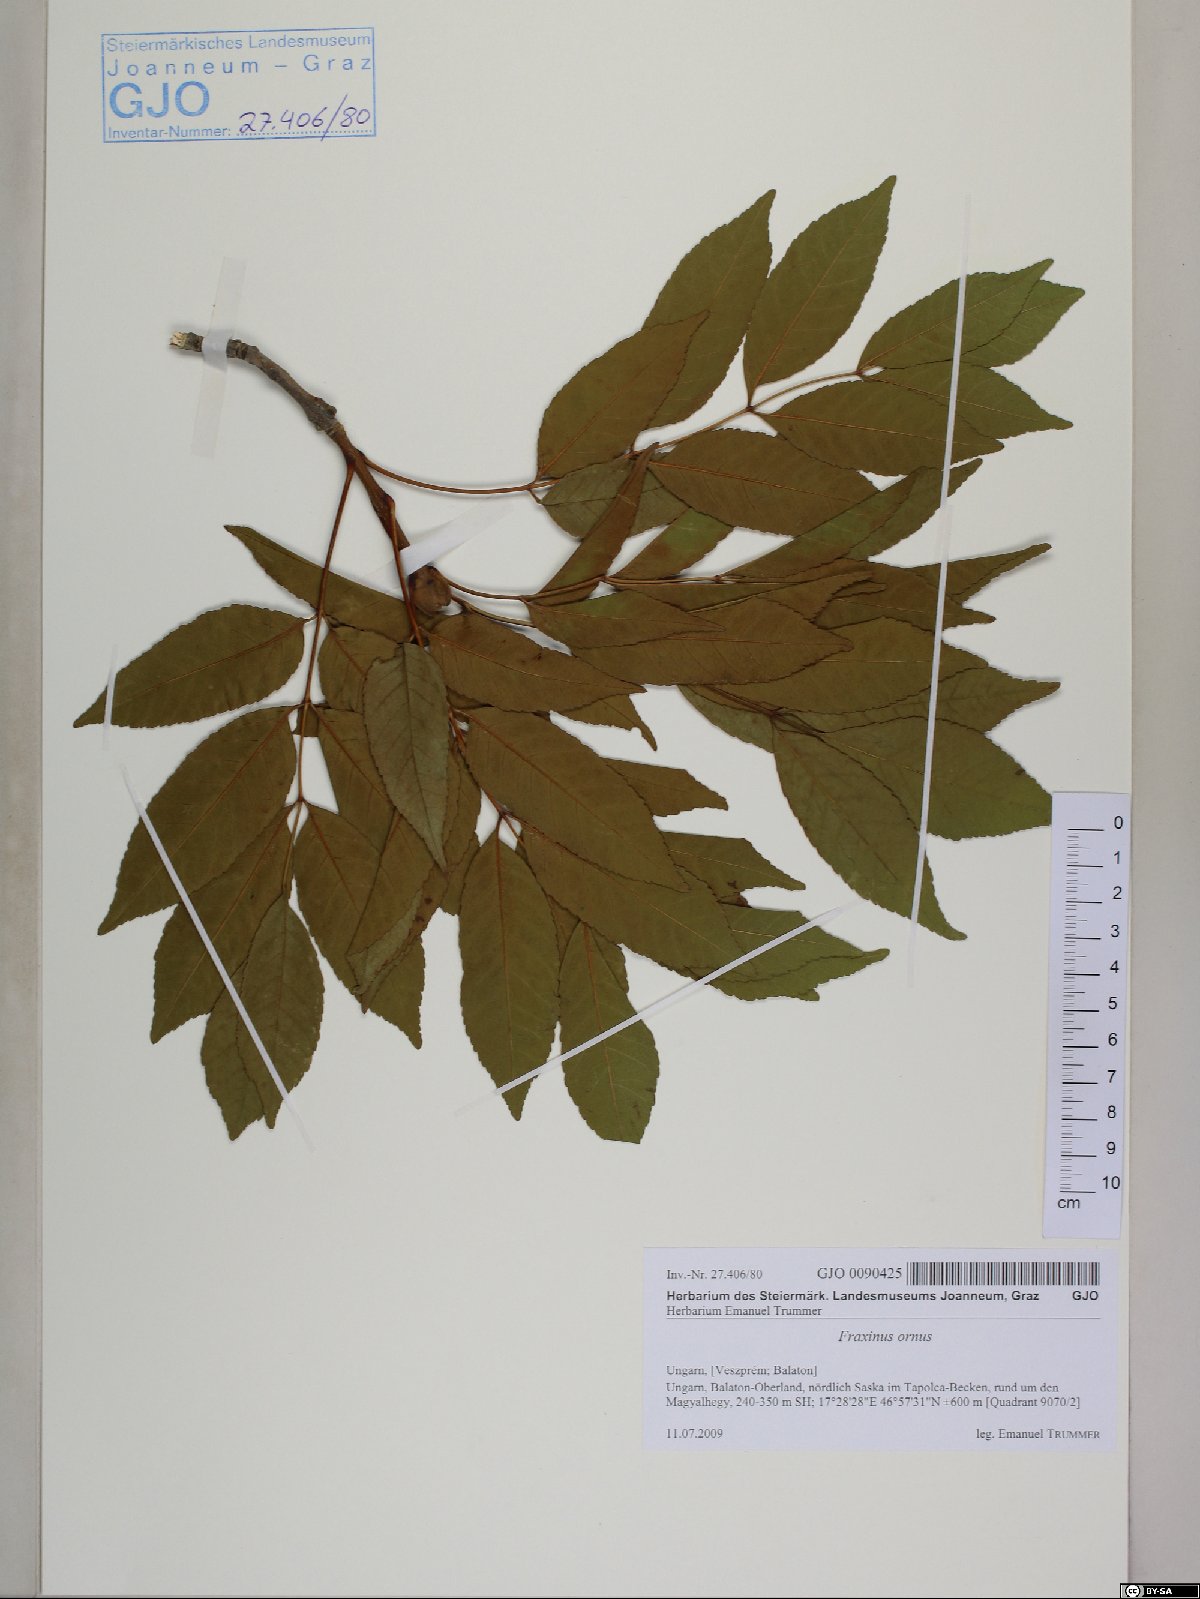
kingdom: Plantae
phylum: Tracheophyta
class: Magnoliopsida
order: Lamiales
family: Oleaceae
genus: Fraxinus
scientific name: Fraxinus ornus
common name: Manna ash
